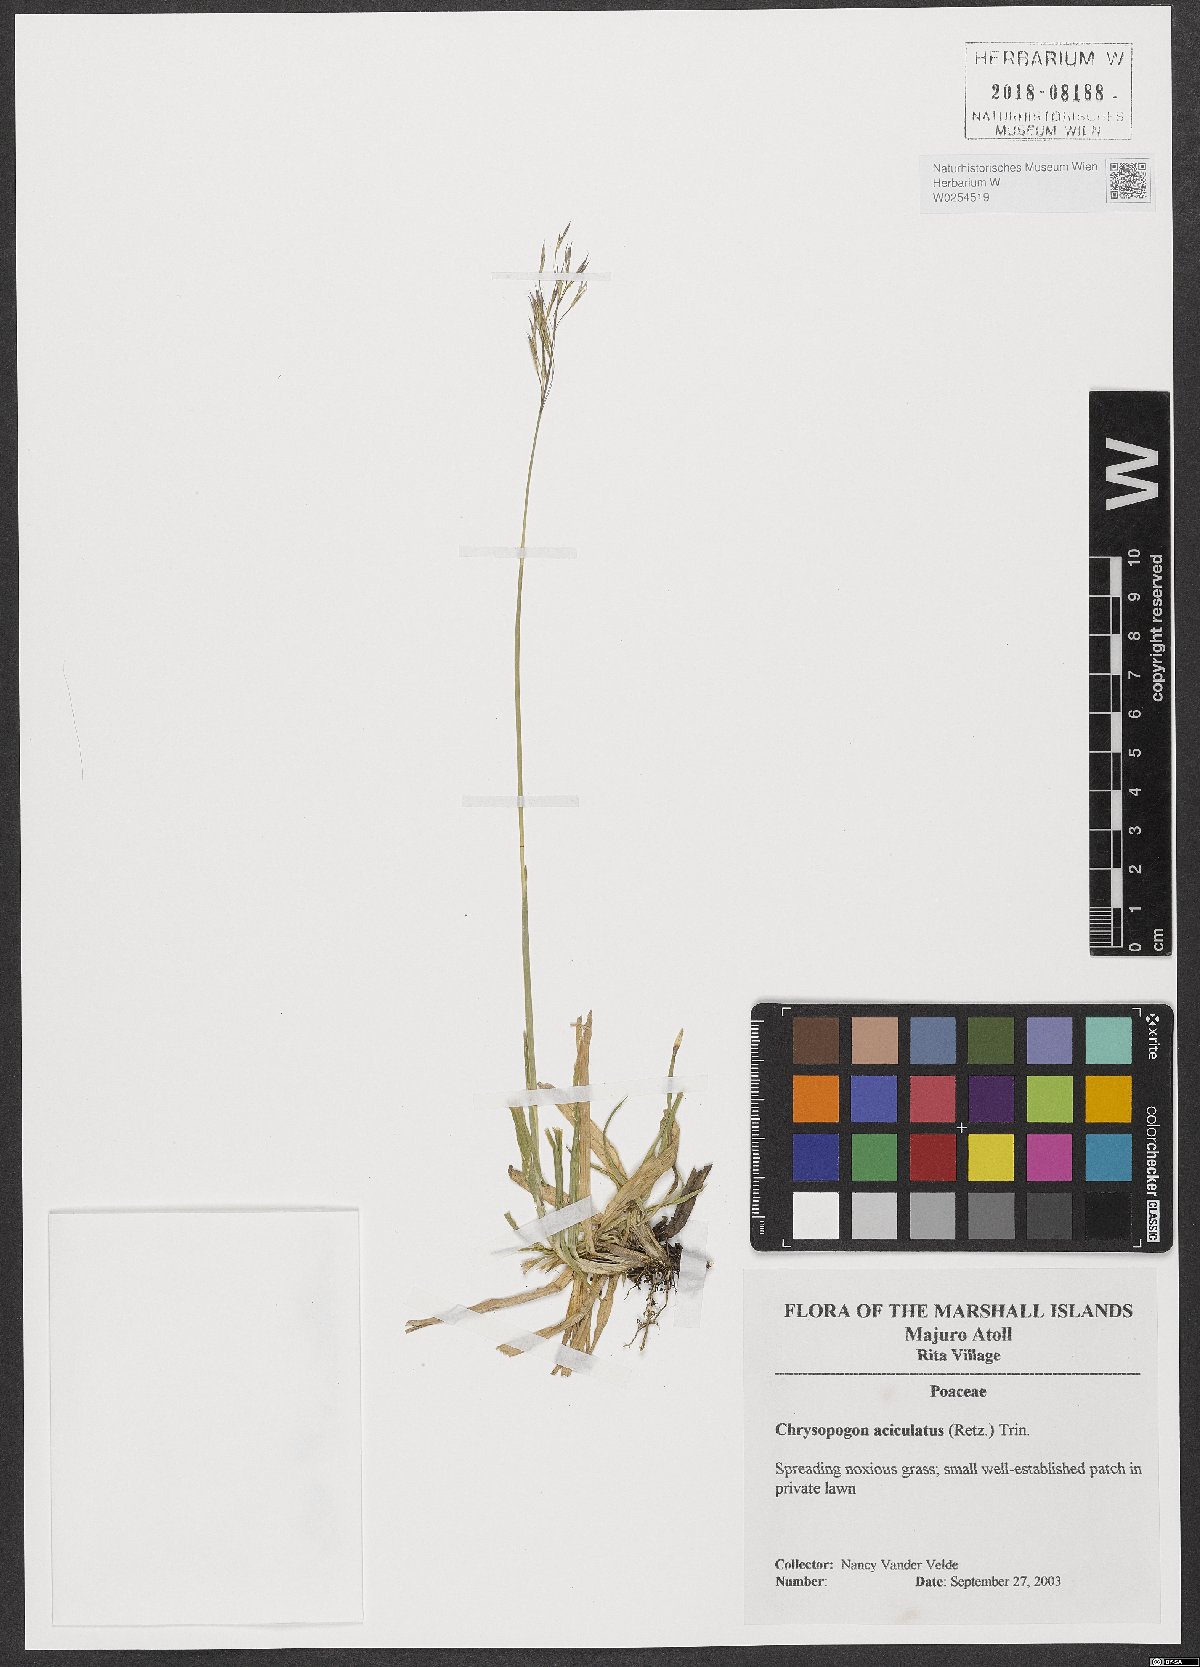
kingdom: Plantae
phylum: Tracheophyta
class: Liliopsida
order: Poales
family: Poaceae
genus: Chrysopogon
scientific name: Chrysopogon aciculatus
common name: Pilipiliula
